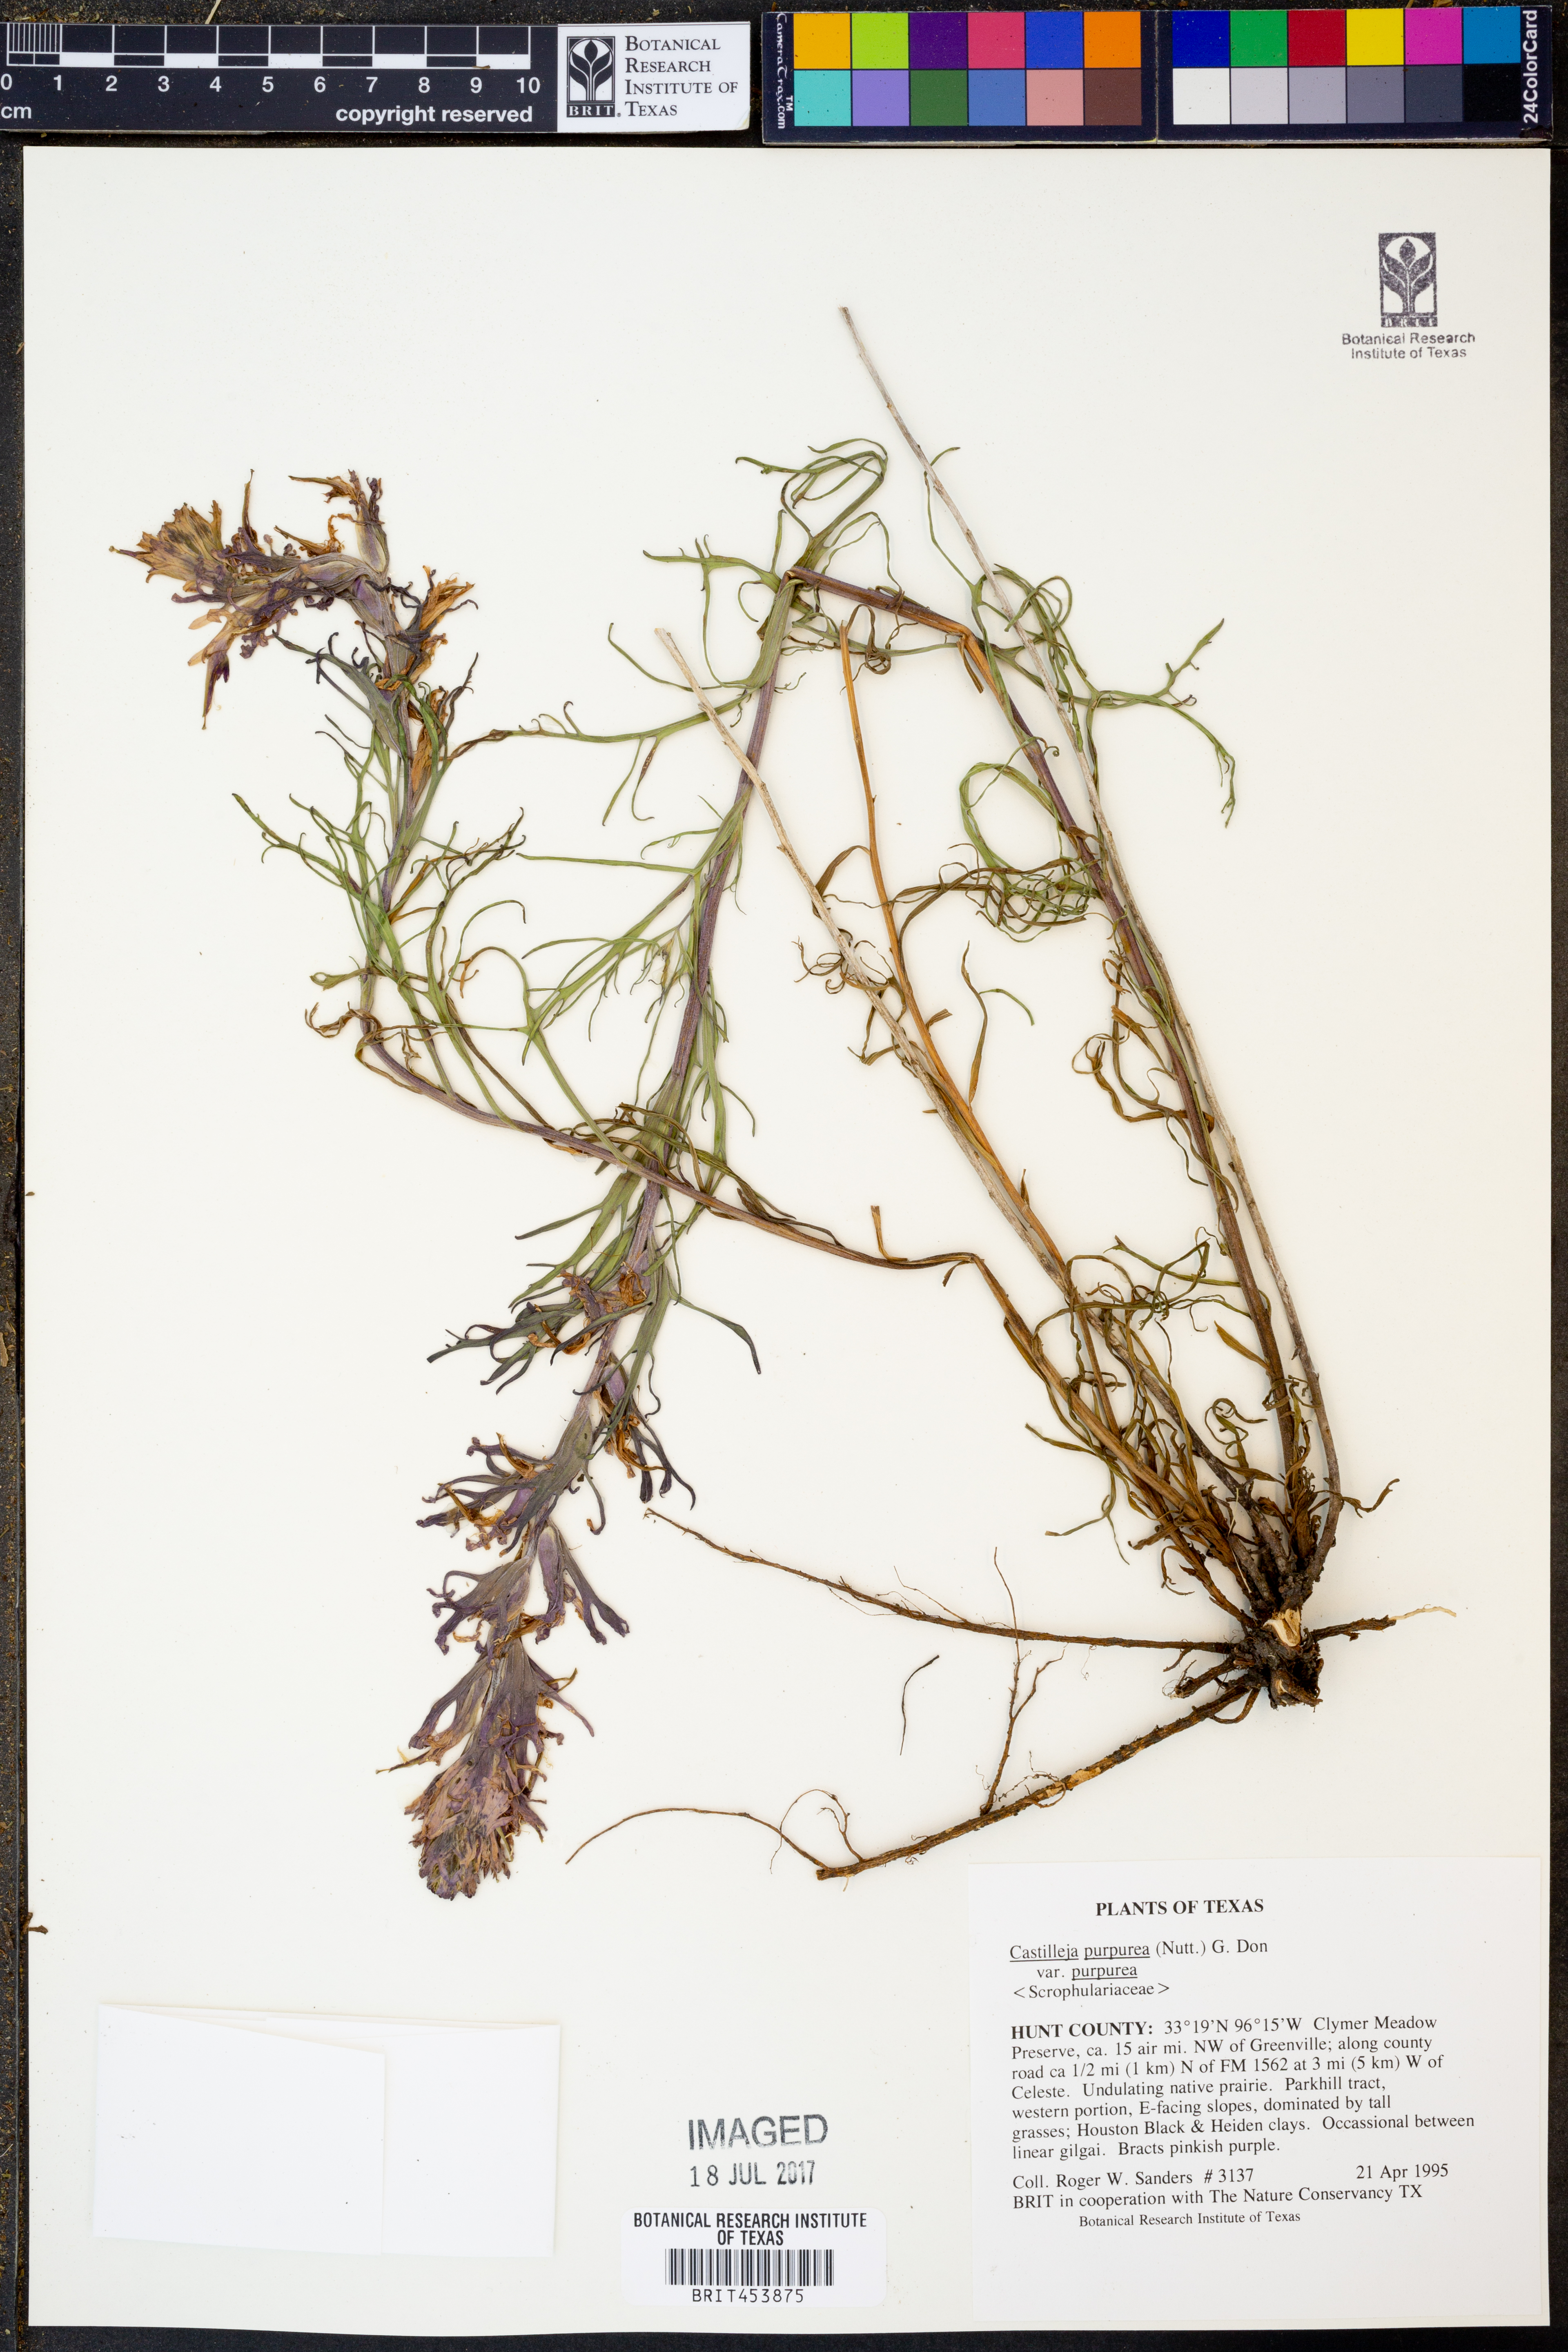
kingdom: Plantae
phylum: Tracheophyta
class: Magnoliopsida
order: Lamiales
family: Orobanchaceae
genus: Castilleja
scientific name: Castilleja purpurea
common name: Plains paintbrush
